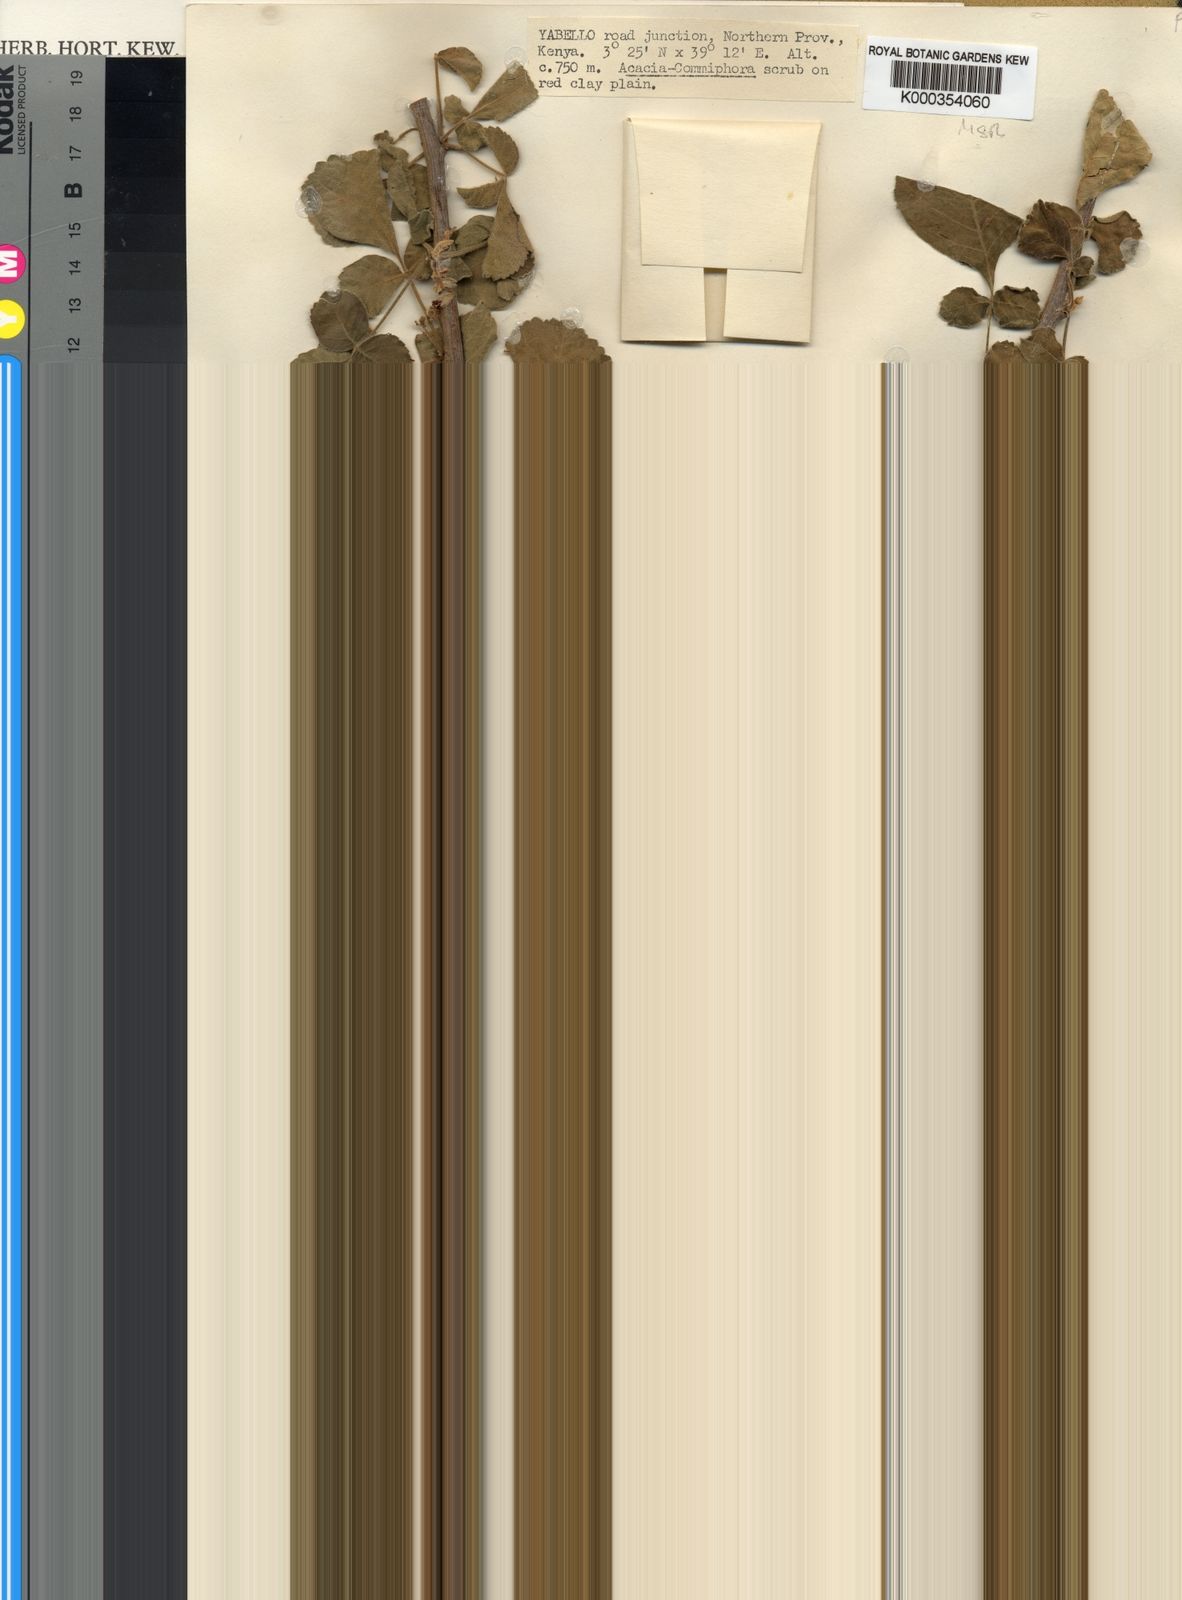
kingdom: Plantae
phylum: Tracheophyta
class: Magnoliopsida
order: Sapindales
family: Burseraceae
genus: Commiphora
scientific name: Commiphora edulis
